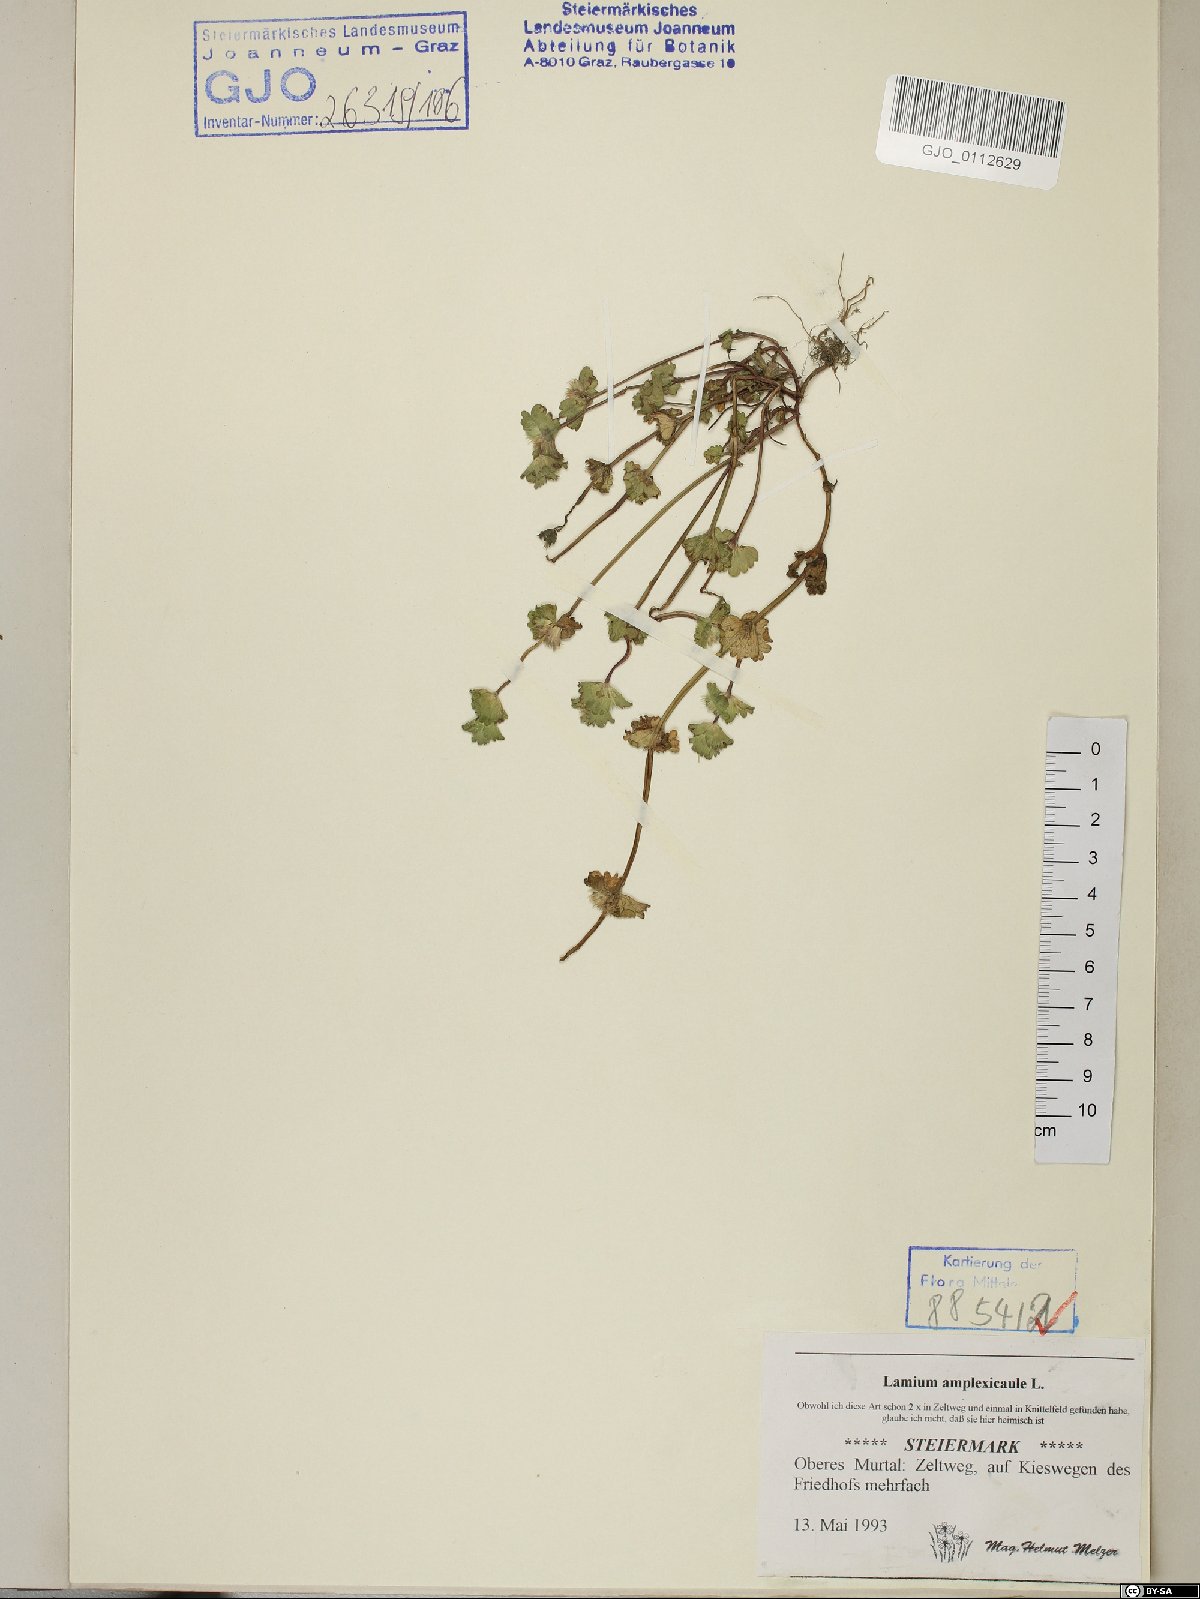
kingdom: Plantae
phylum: Tracheophyta
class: Magnoliopsida
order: Lamiales
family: Lamiaceae
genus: Lamium
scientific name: Lamium amplexicaule
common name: Henbit dead-nettle
